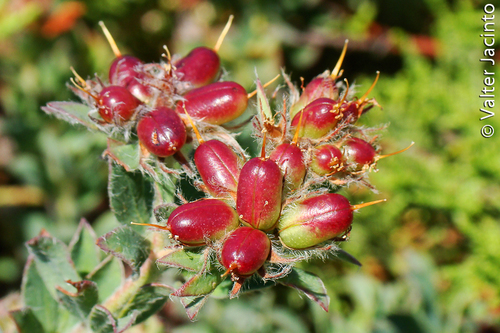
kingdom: Plantae
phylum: Tracheophyta
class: Magnoliopsida
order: Fabales
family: Fabaceae
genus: Lotus
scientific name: Lotus hirsutus
